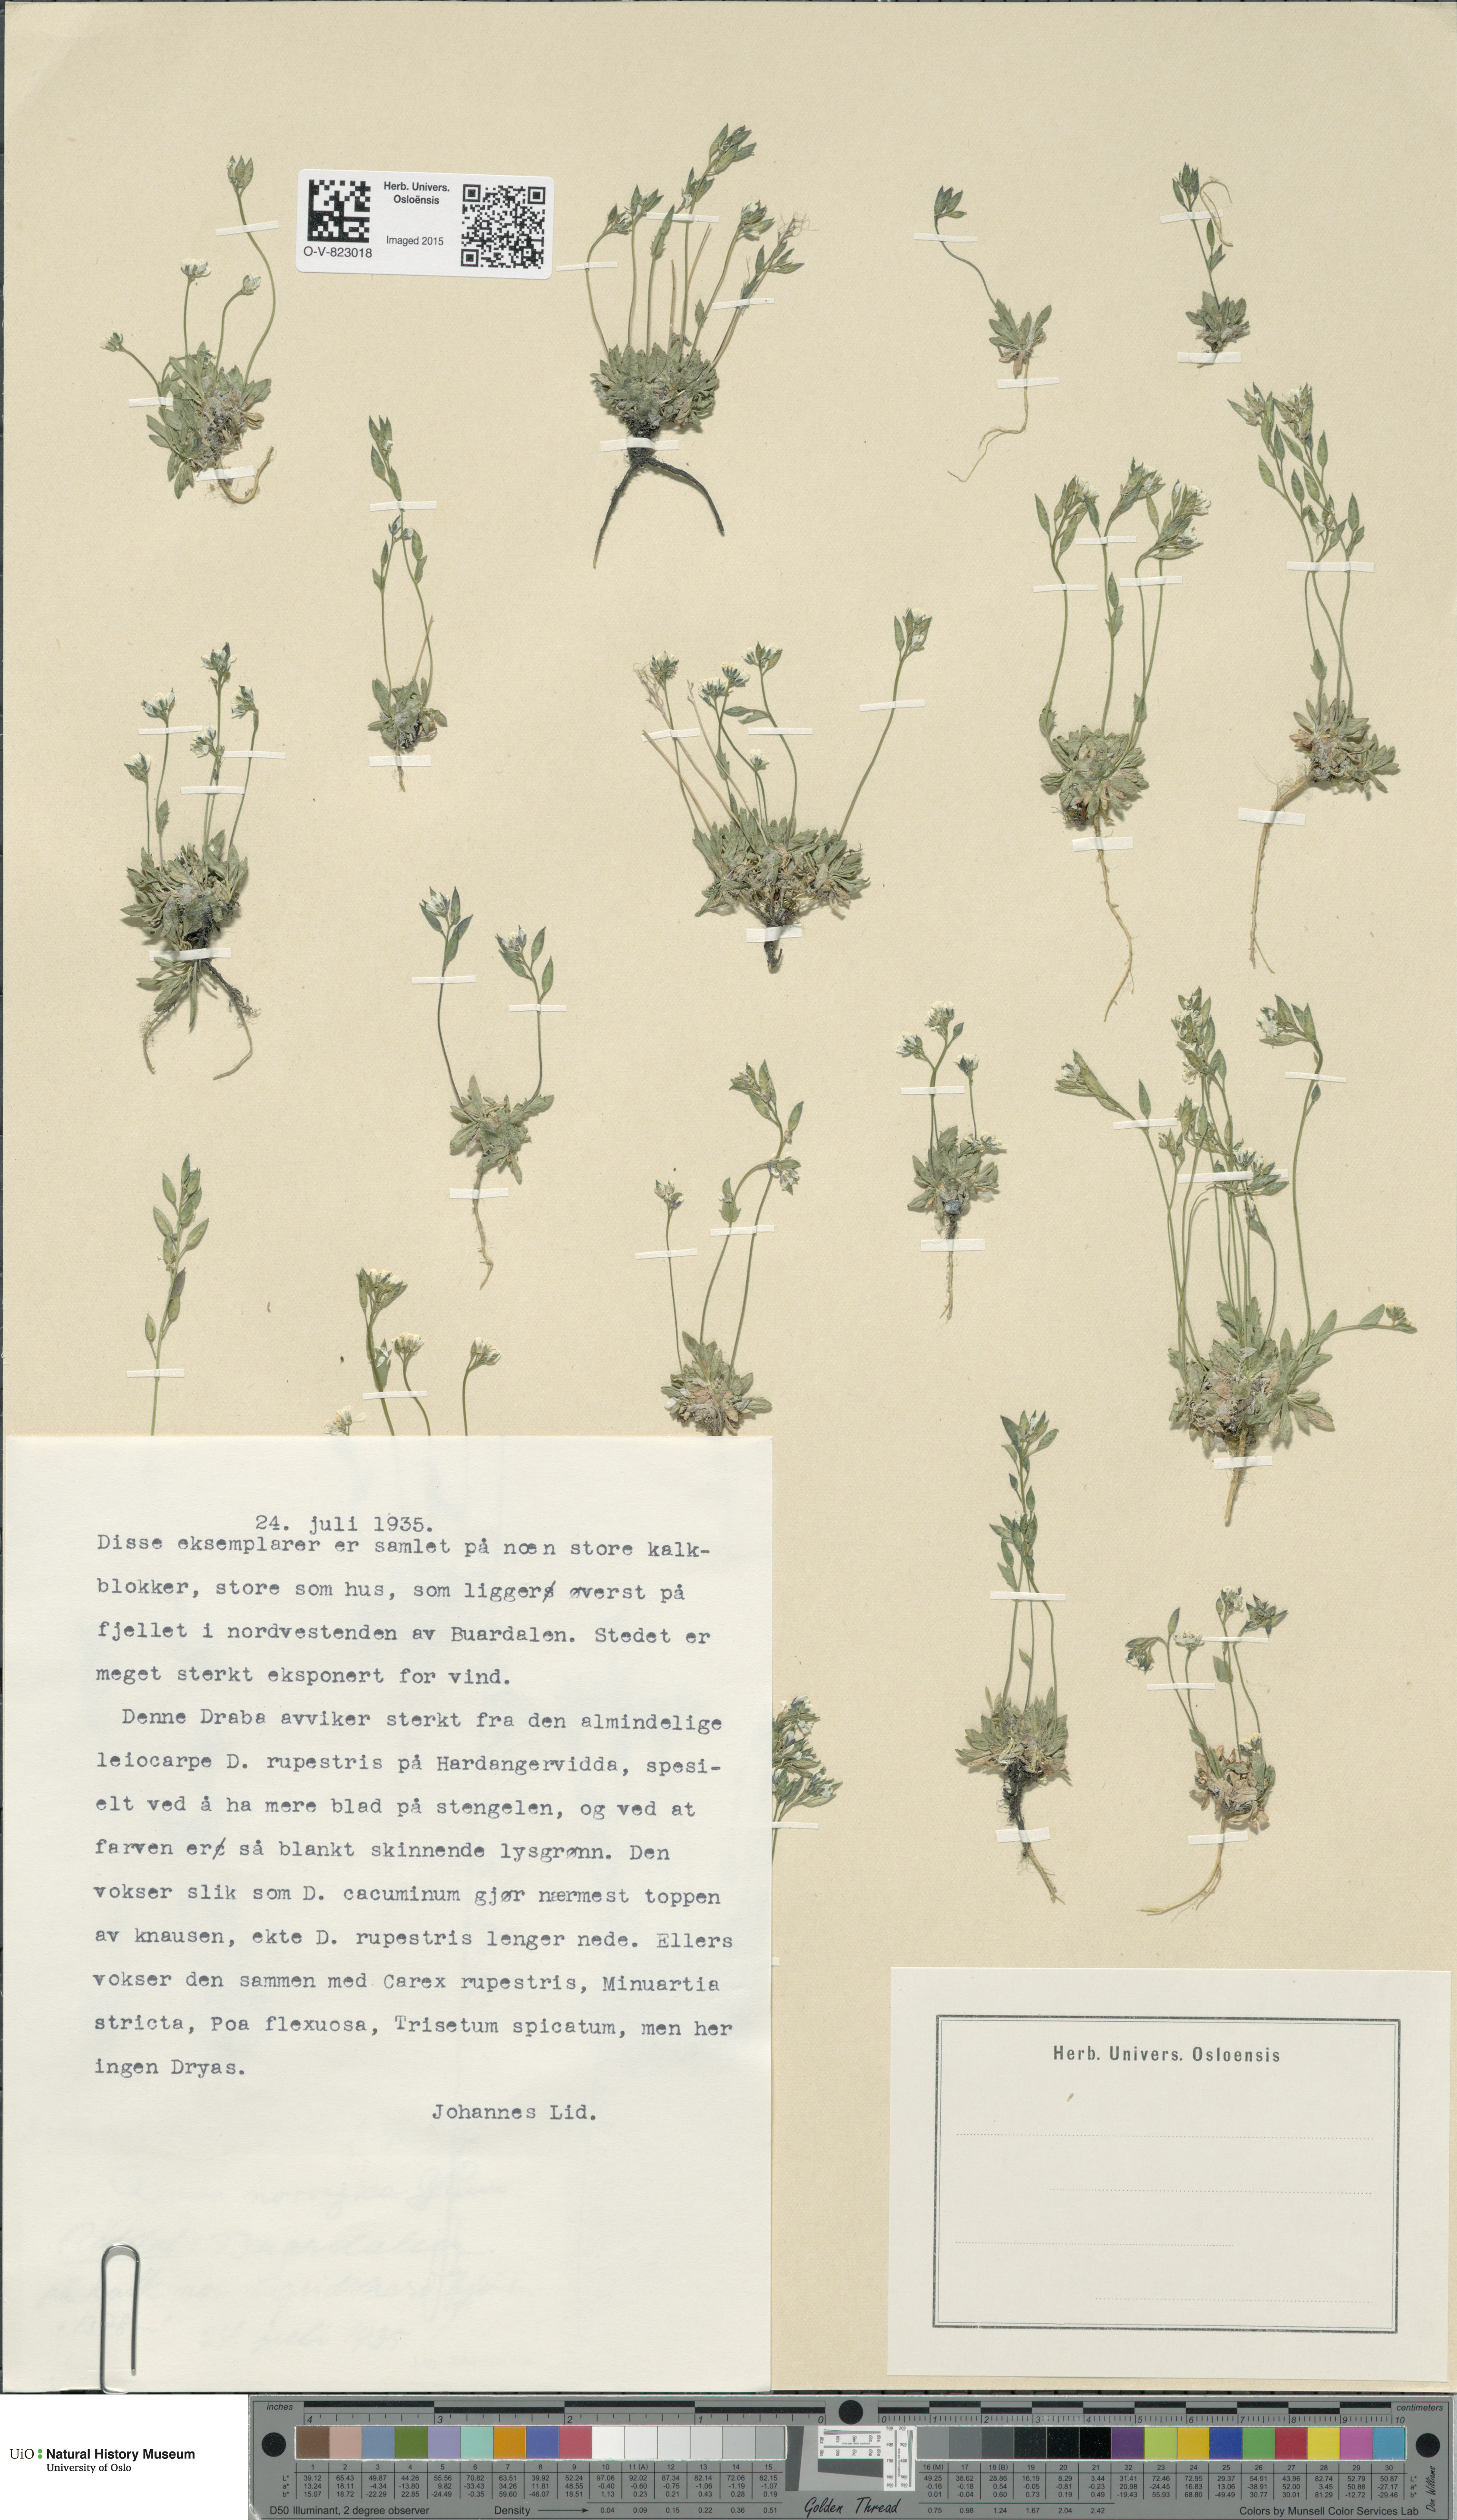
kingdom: Plantae
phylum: Tracheophyta
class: Magnoliopsida
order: Brassicales
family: Brassicaceae
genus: Draba
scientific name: Draba
